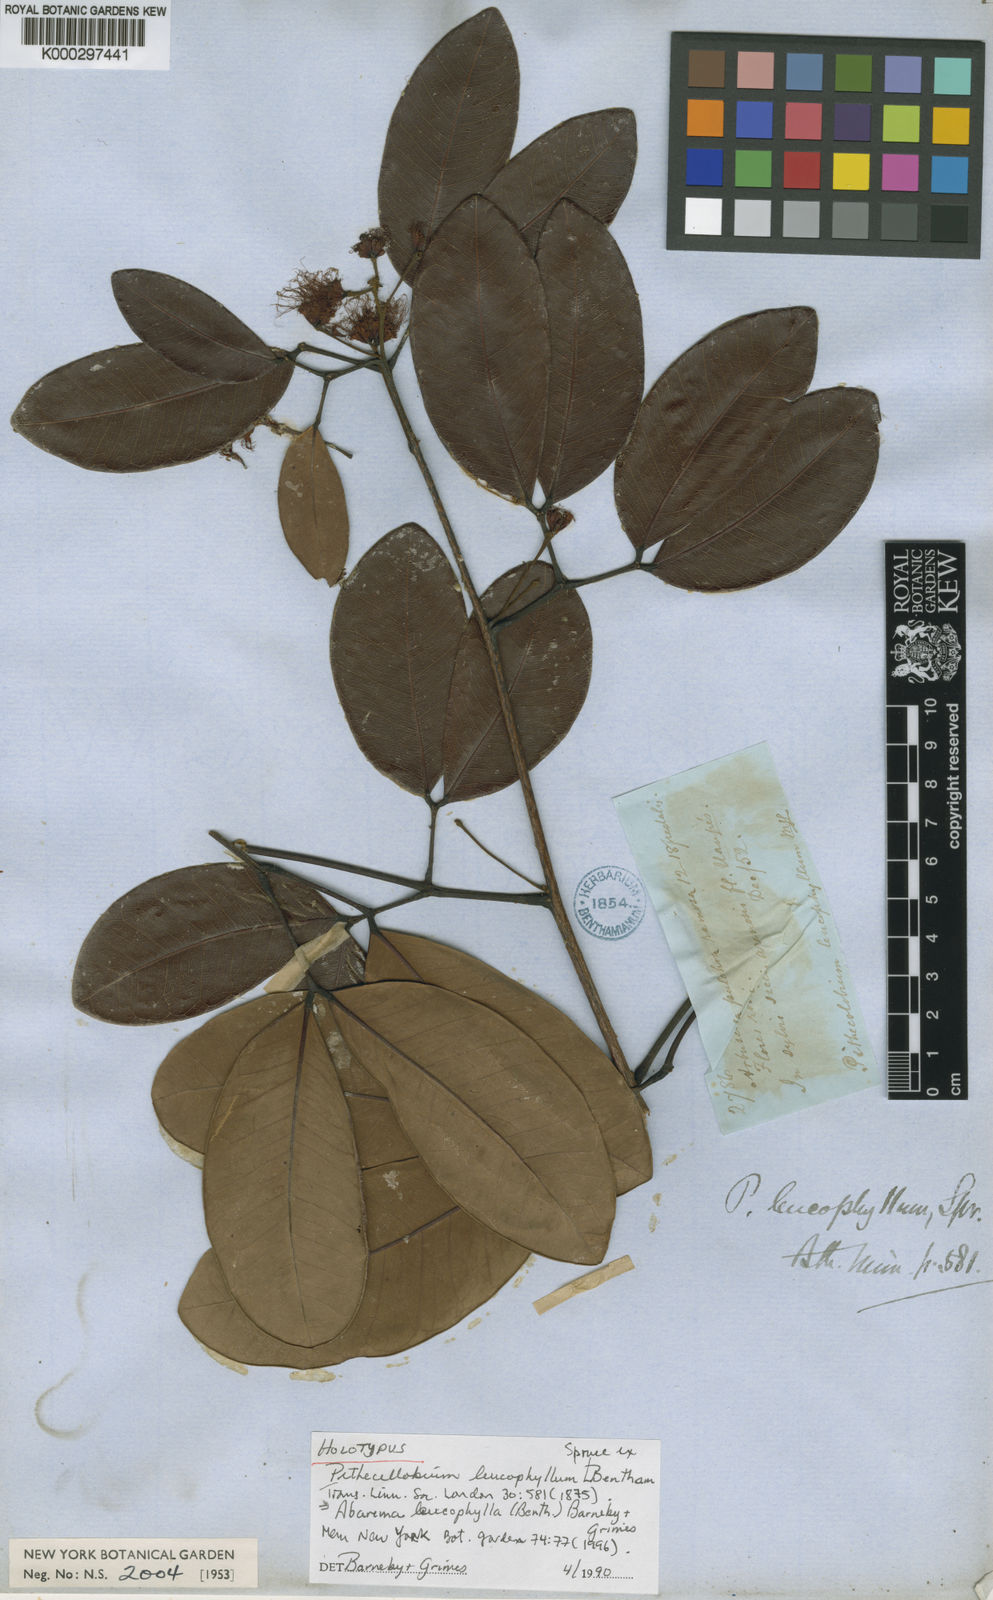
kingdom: Plantae
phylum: Tracheophyta
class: Magnoliopsida
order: Fabales
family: Fabaceae
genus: Jupunba
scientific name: Jupunba leucophylla
